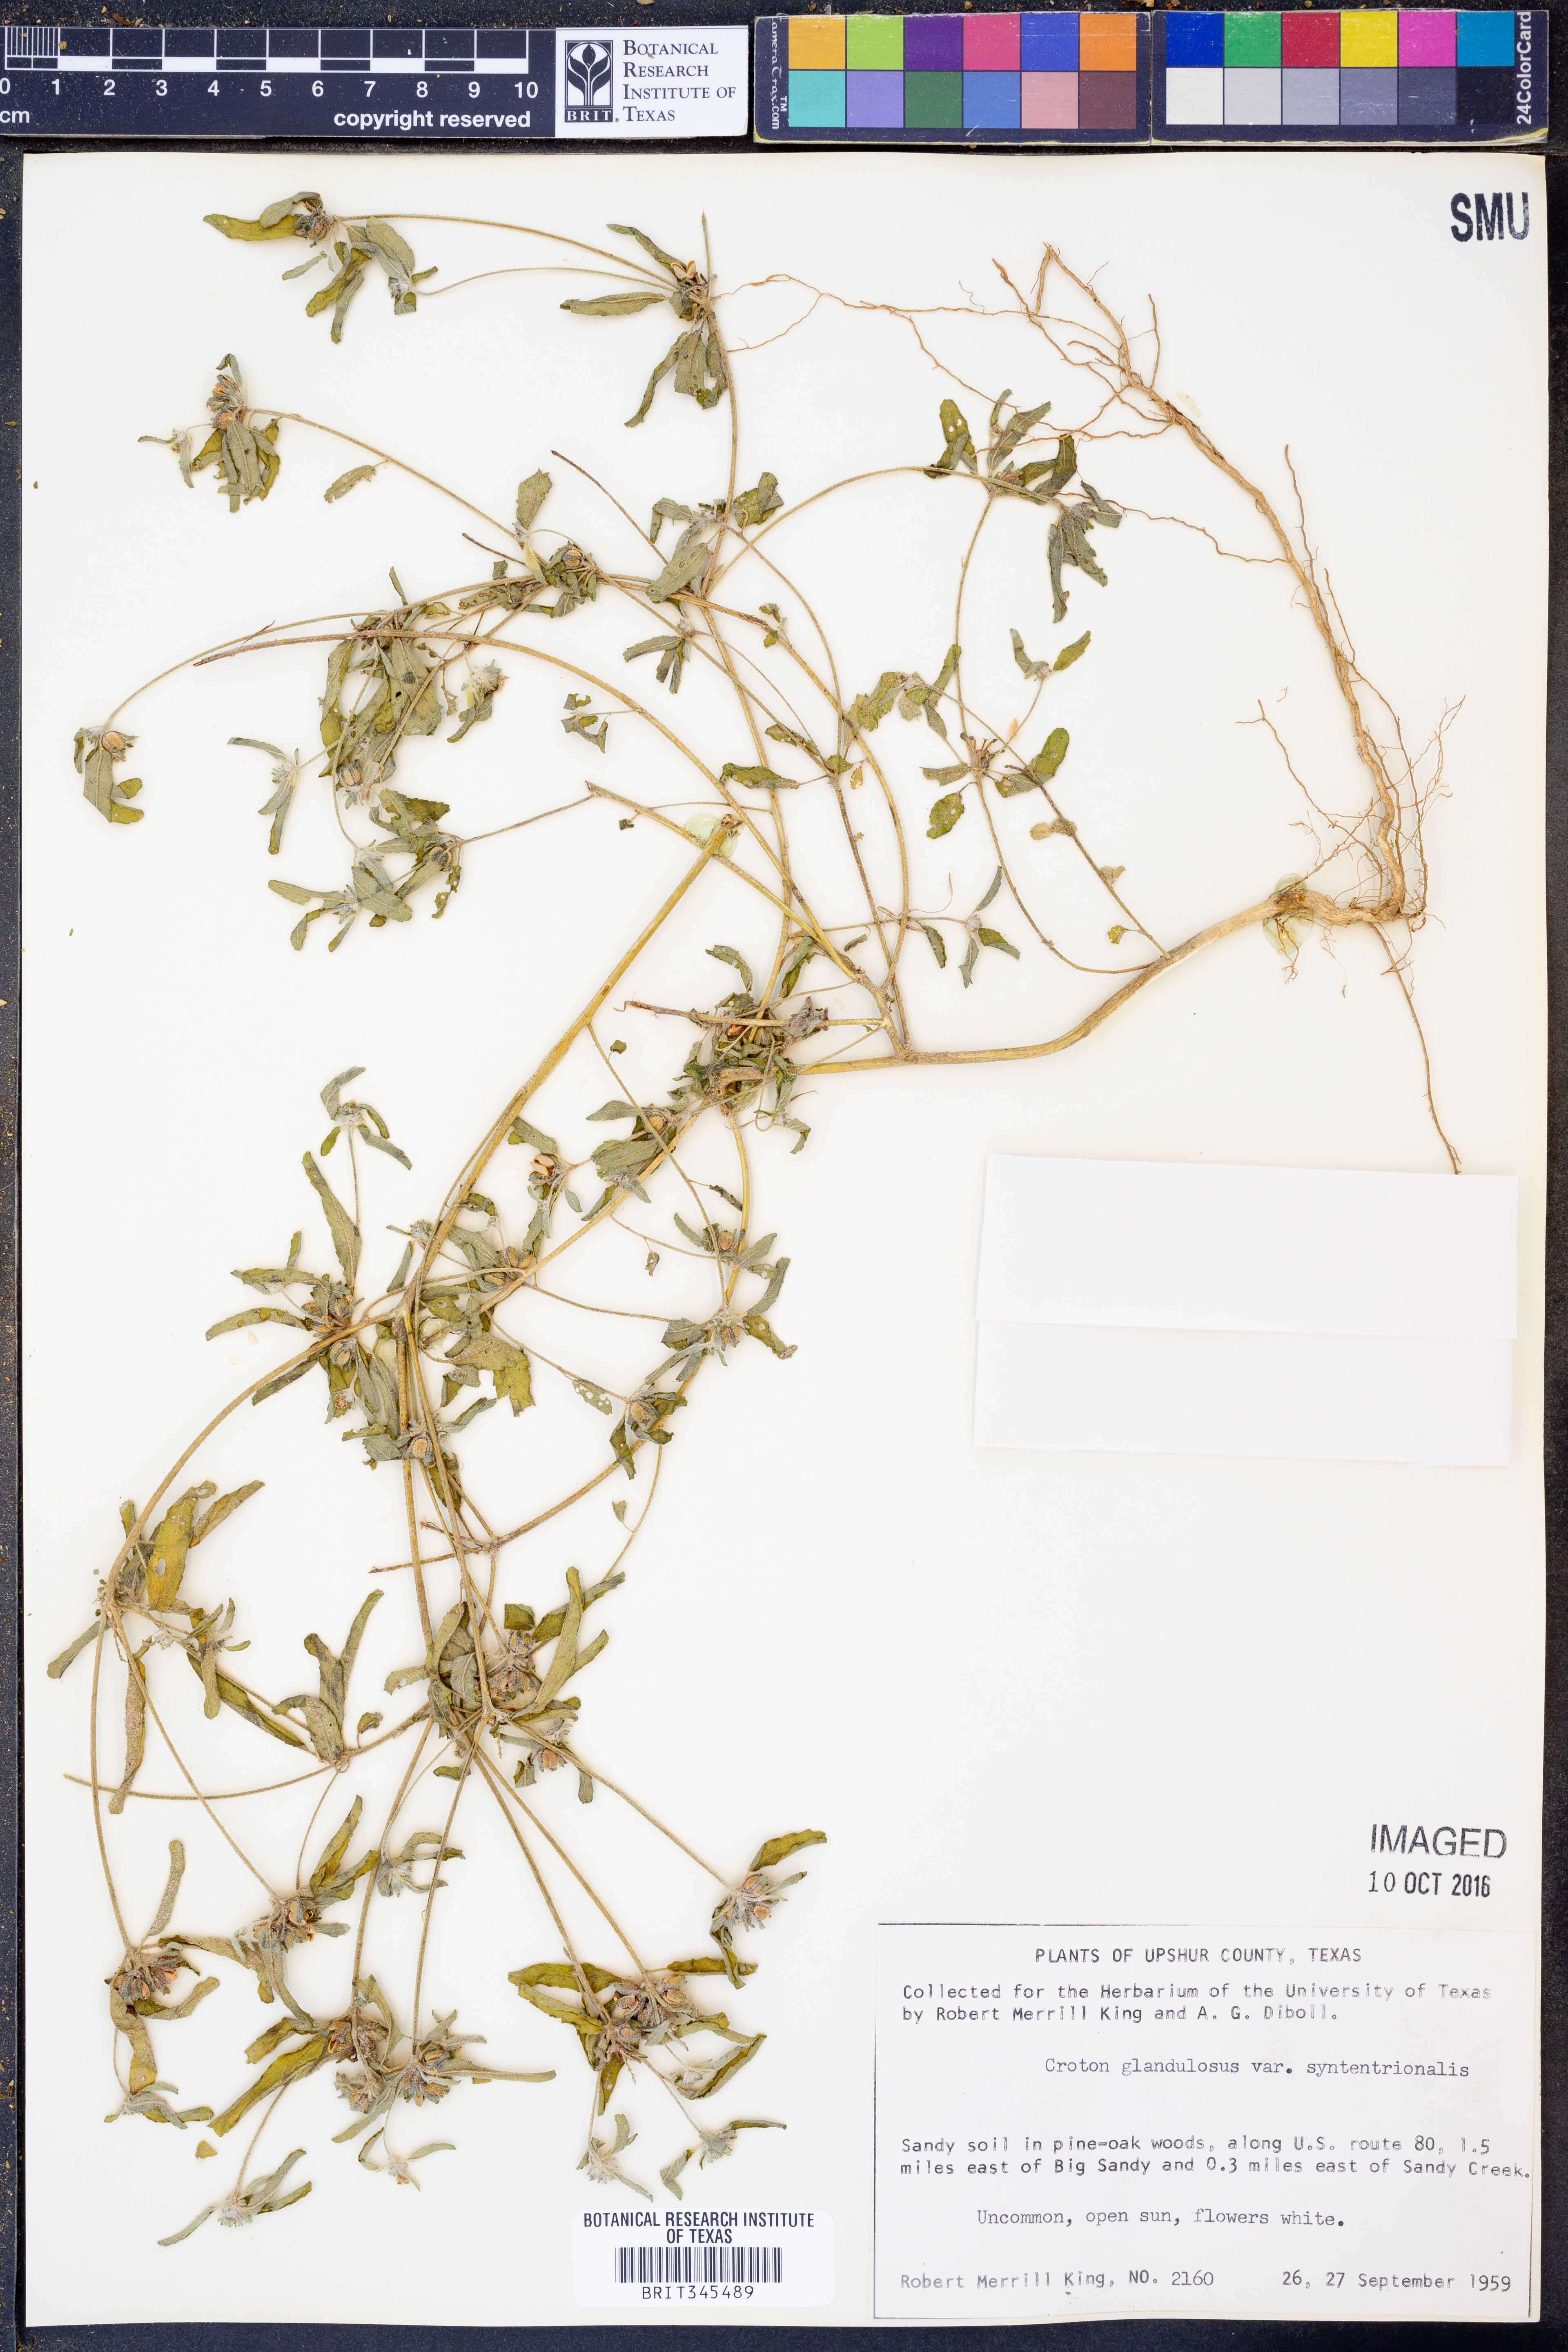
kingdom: Plantae
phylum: Tracheophyta
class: Magnoliopsida
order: Malpighiales
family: Euphorbiaceae
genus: Croton
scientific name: Croton glandulosus
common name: Tropic croton
